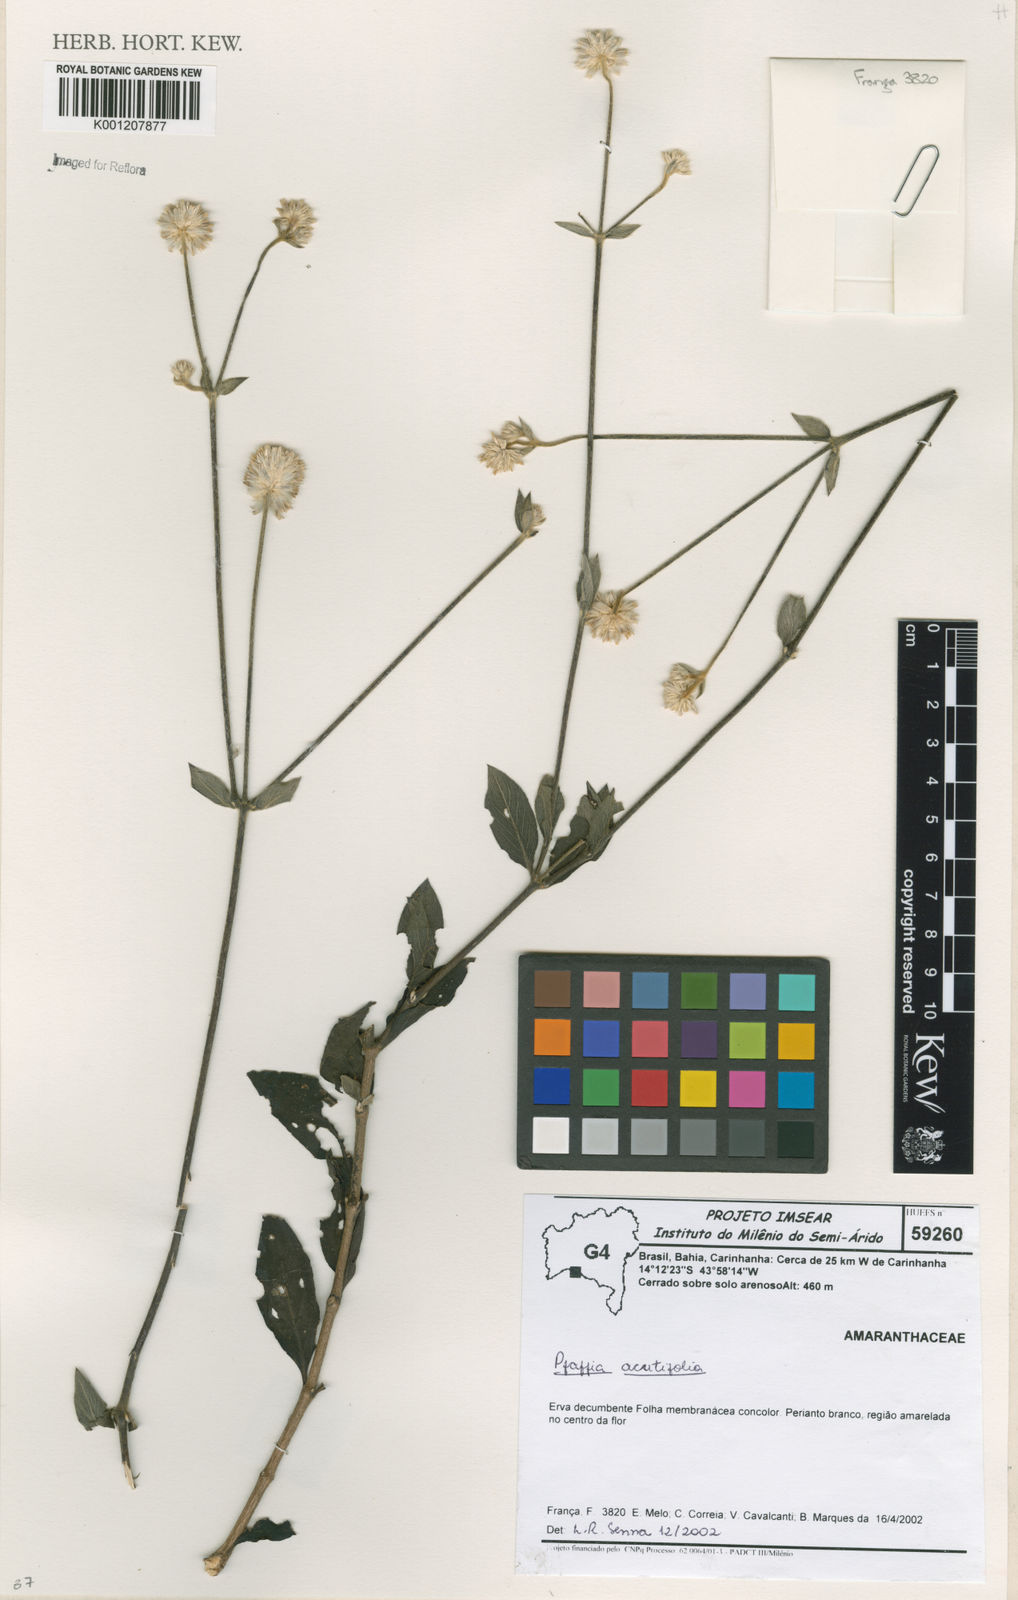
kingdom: Plantae
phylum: Tracheophyta
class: Magnoliopsida
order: Caryophyllales
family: Amaranthaceae
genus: Pfaffia
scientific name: Pfaffia
